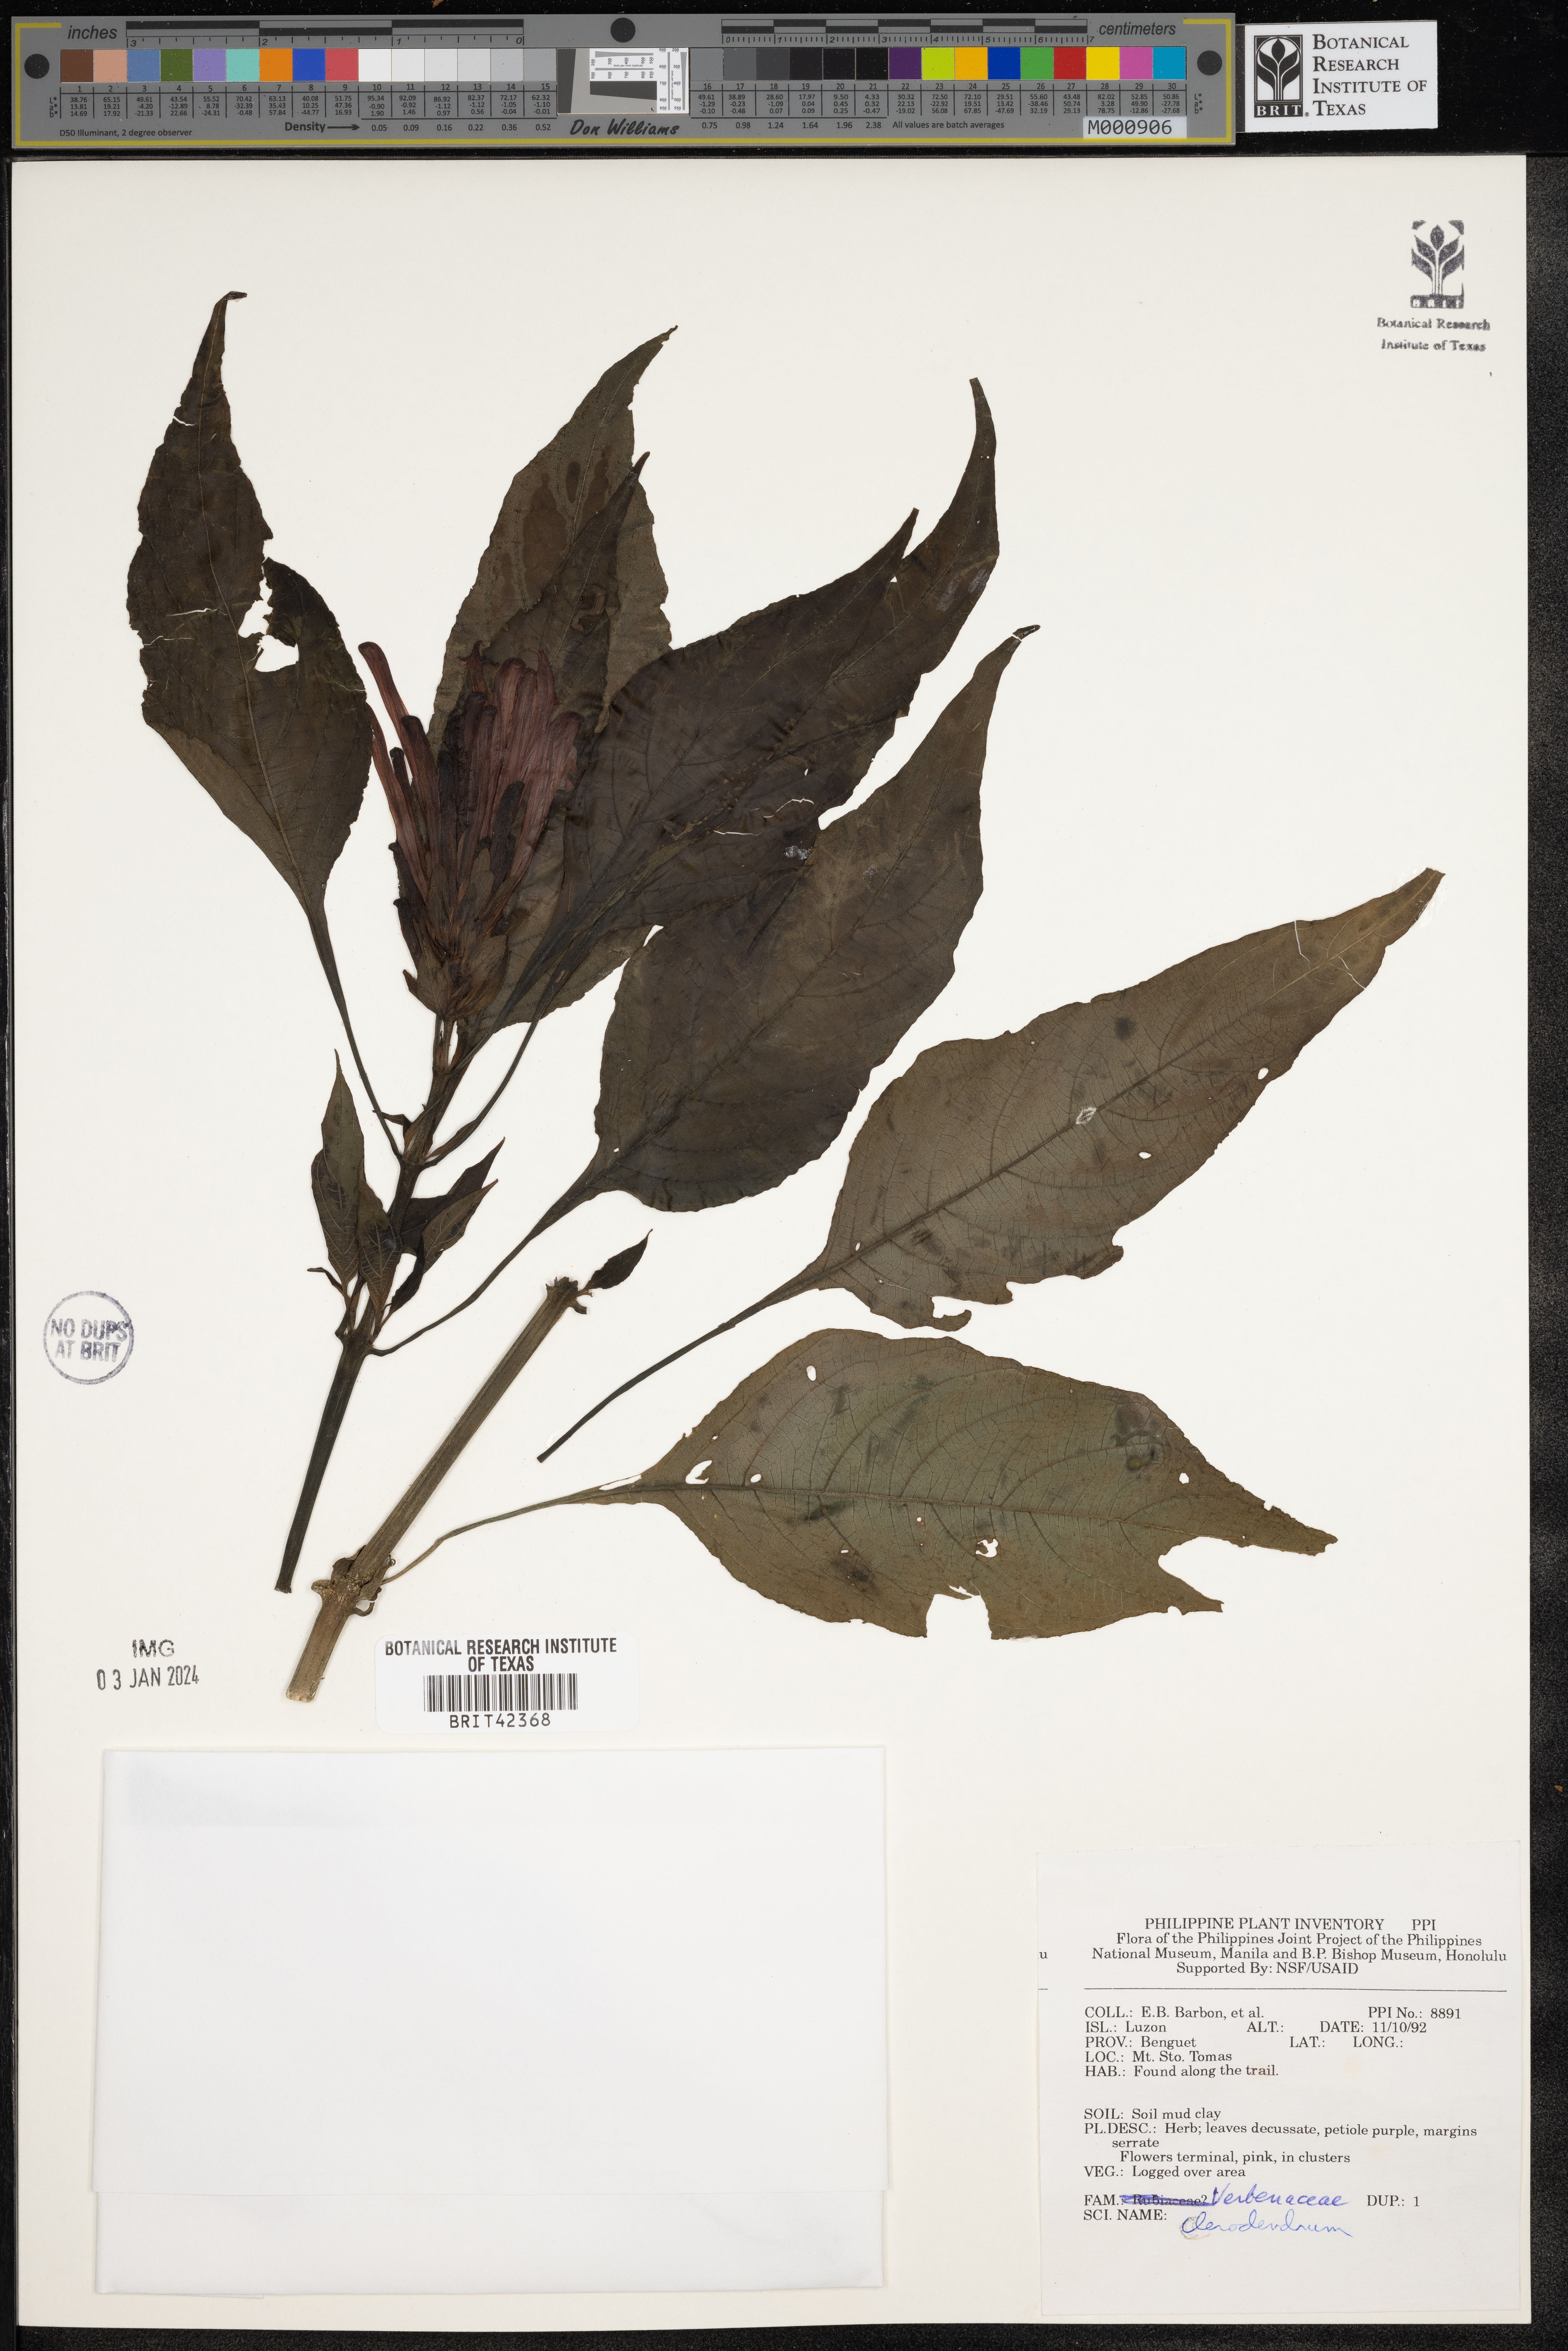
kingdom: Plantae
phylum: Tracheophyta
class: Magnoliopsida
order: Lamiales
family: Lamiaceae
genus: Clerodendrum
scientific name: Clerodendrum
